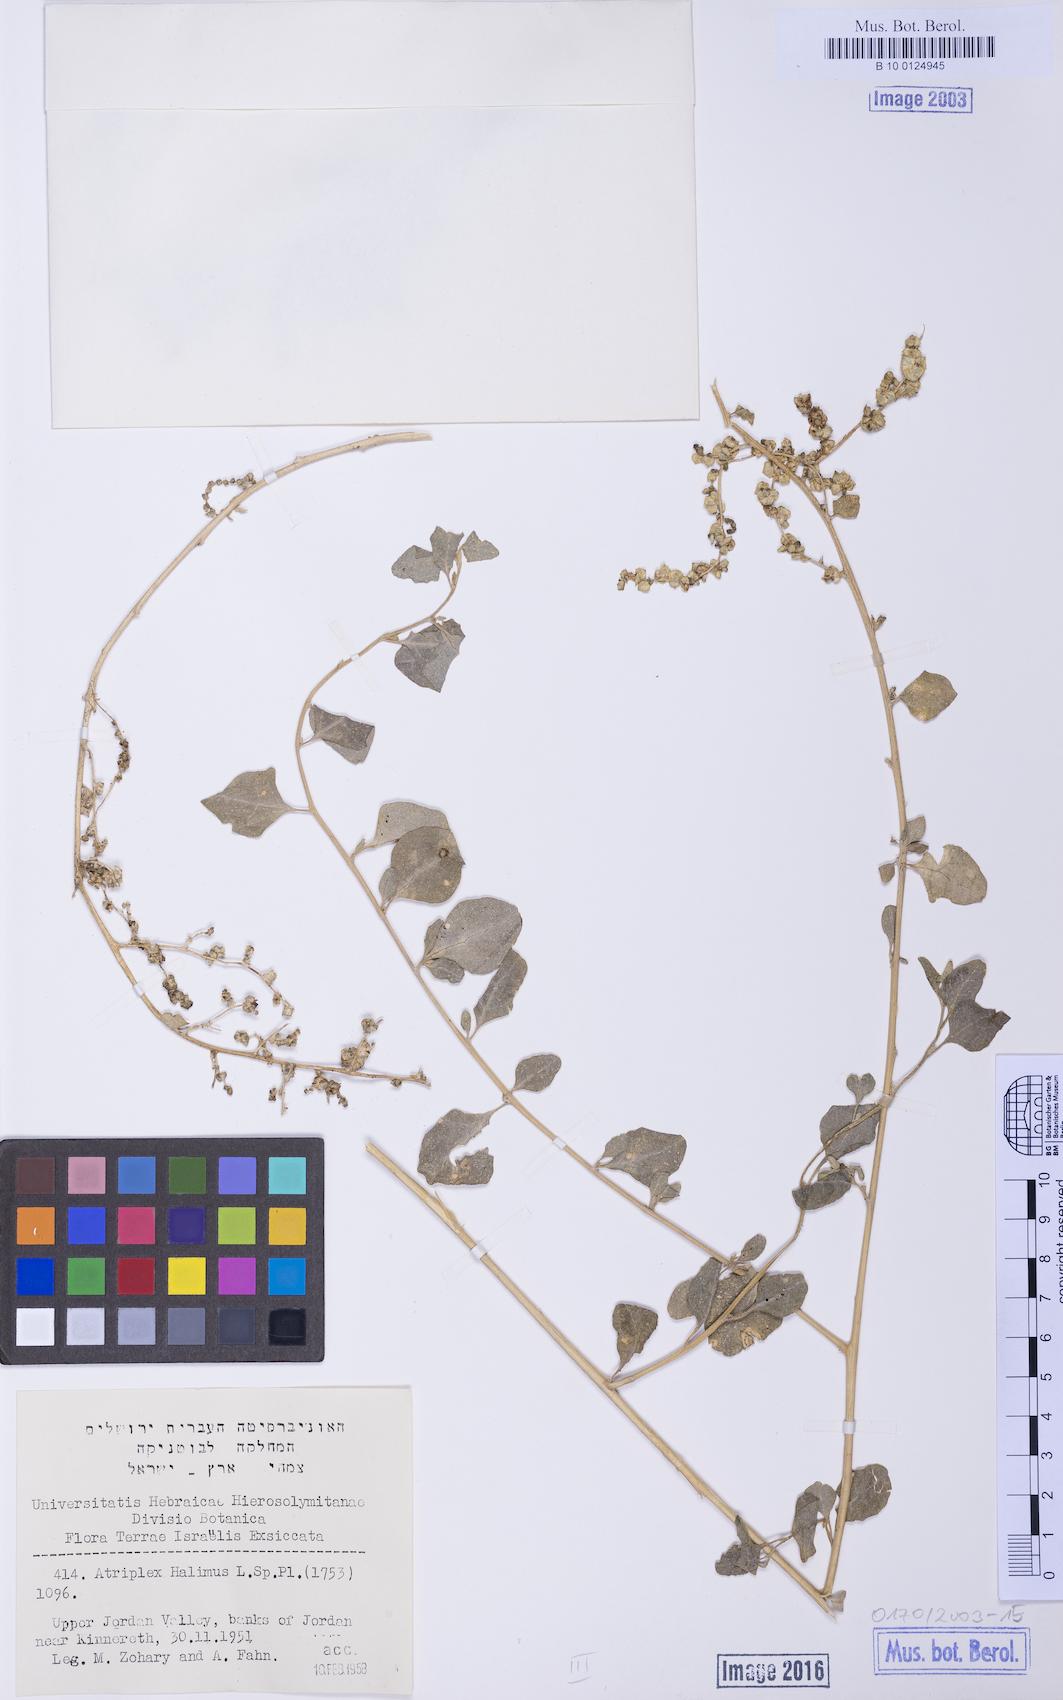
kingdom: Plantae
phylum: Tracheophyta
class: Magnoliopsida
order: Caryophyllales
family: Amaranthaceae
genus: Atriplex
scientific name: Atriplex halimus
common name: Shrubby orache
